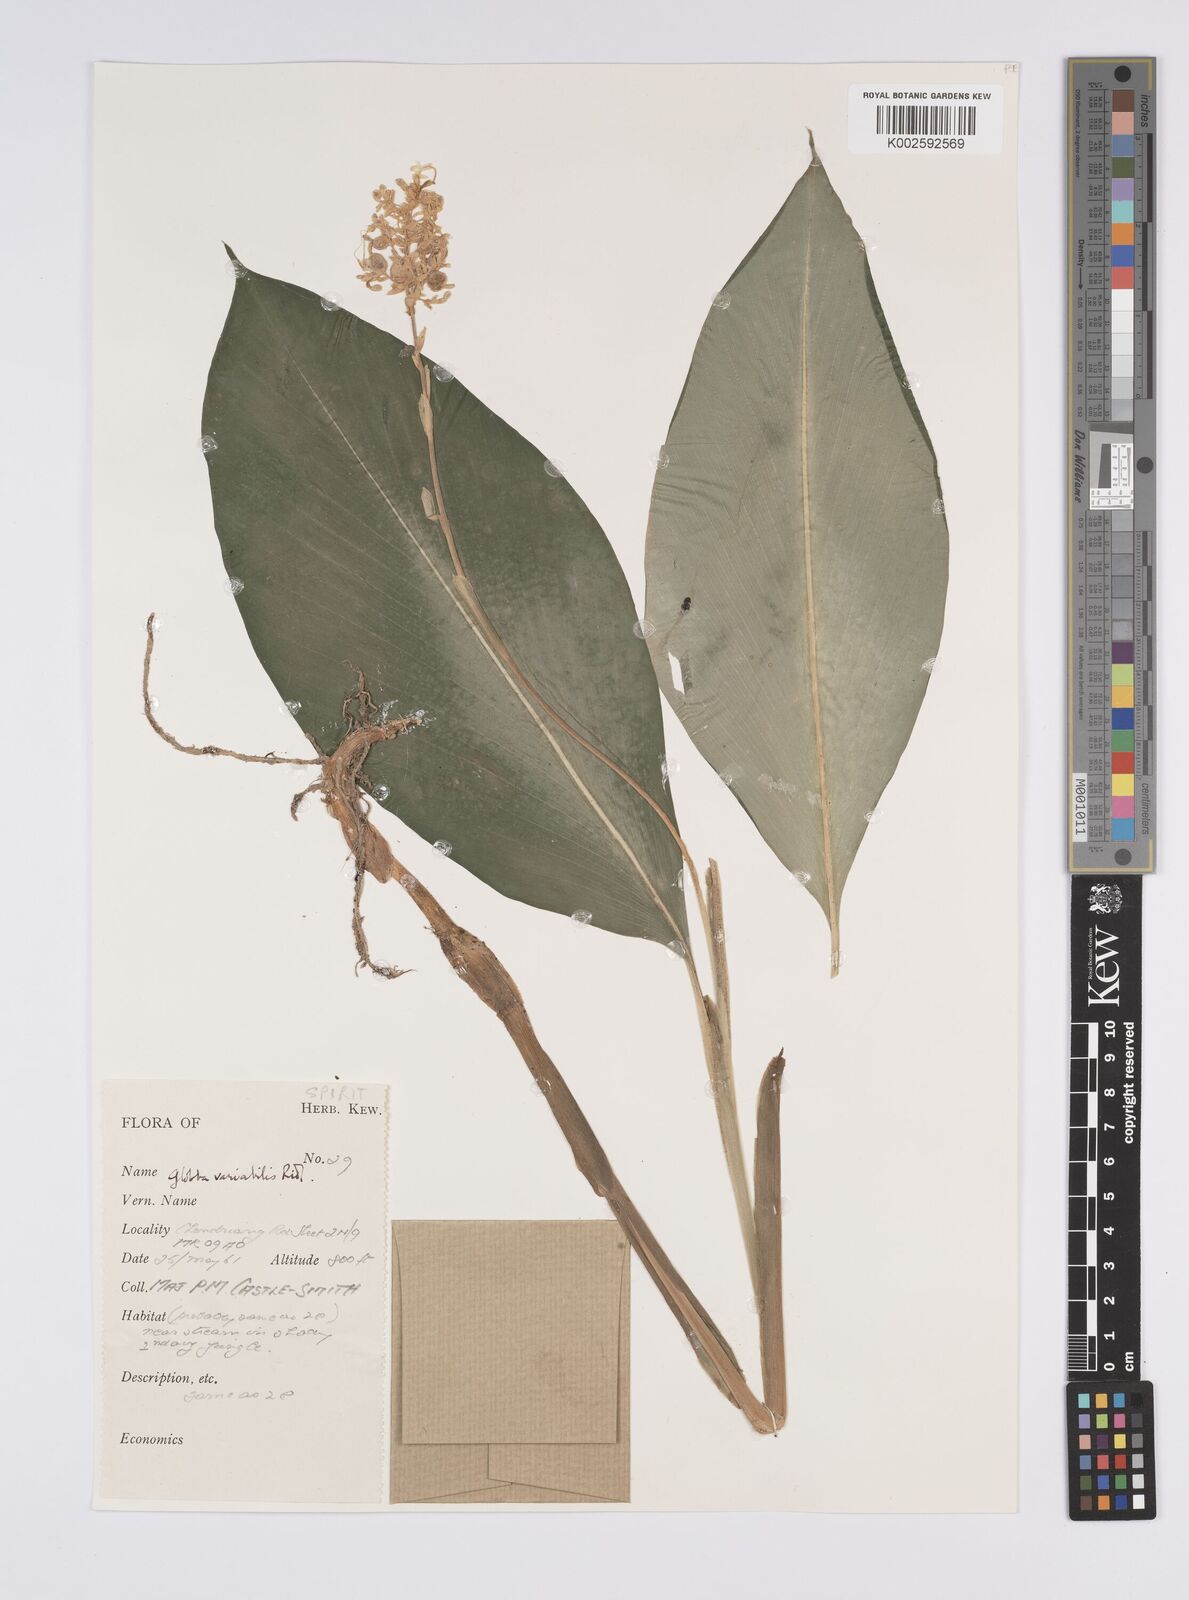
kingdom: Plantae
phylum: Tracheophyta
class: Liliopsida
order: Zingiberales
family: Zingiberaceae
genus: Globba
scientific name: Globba variabilis
